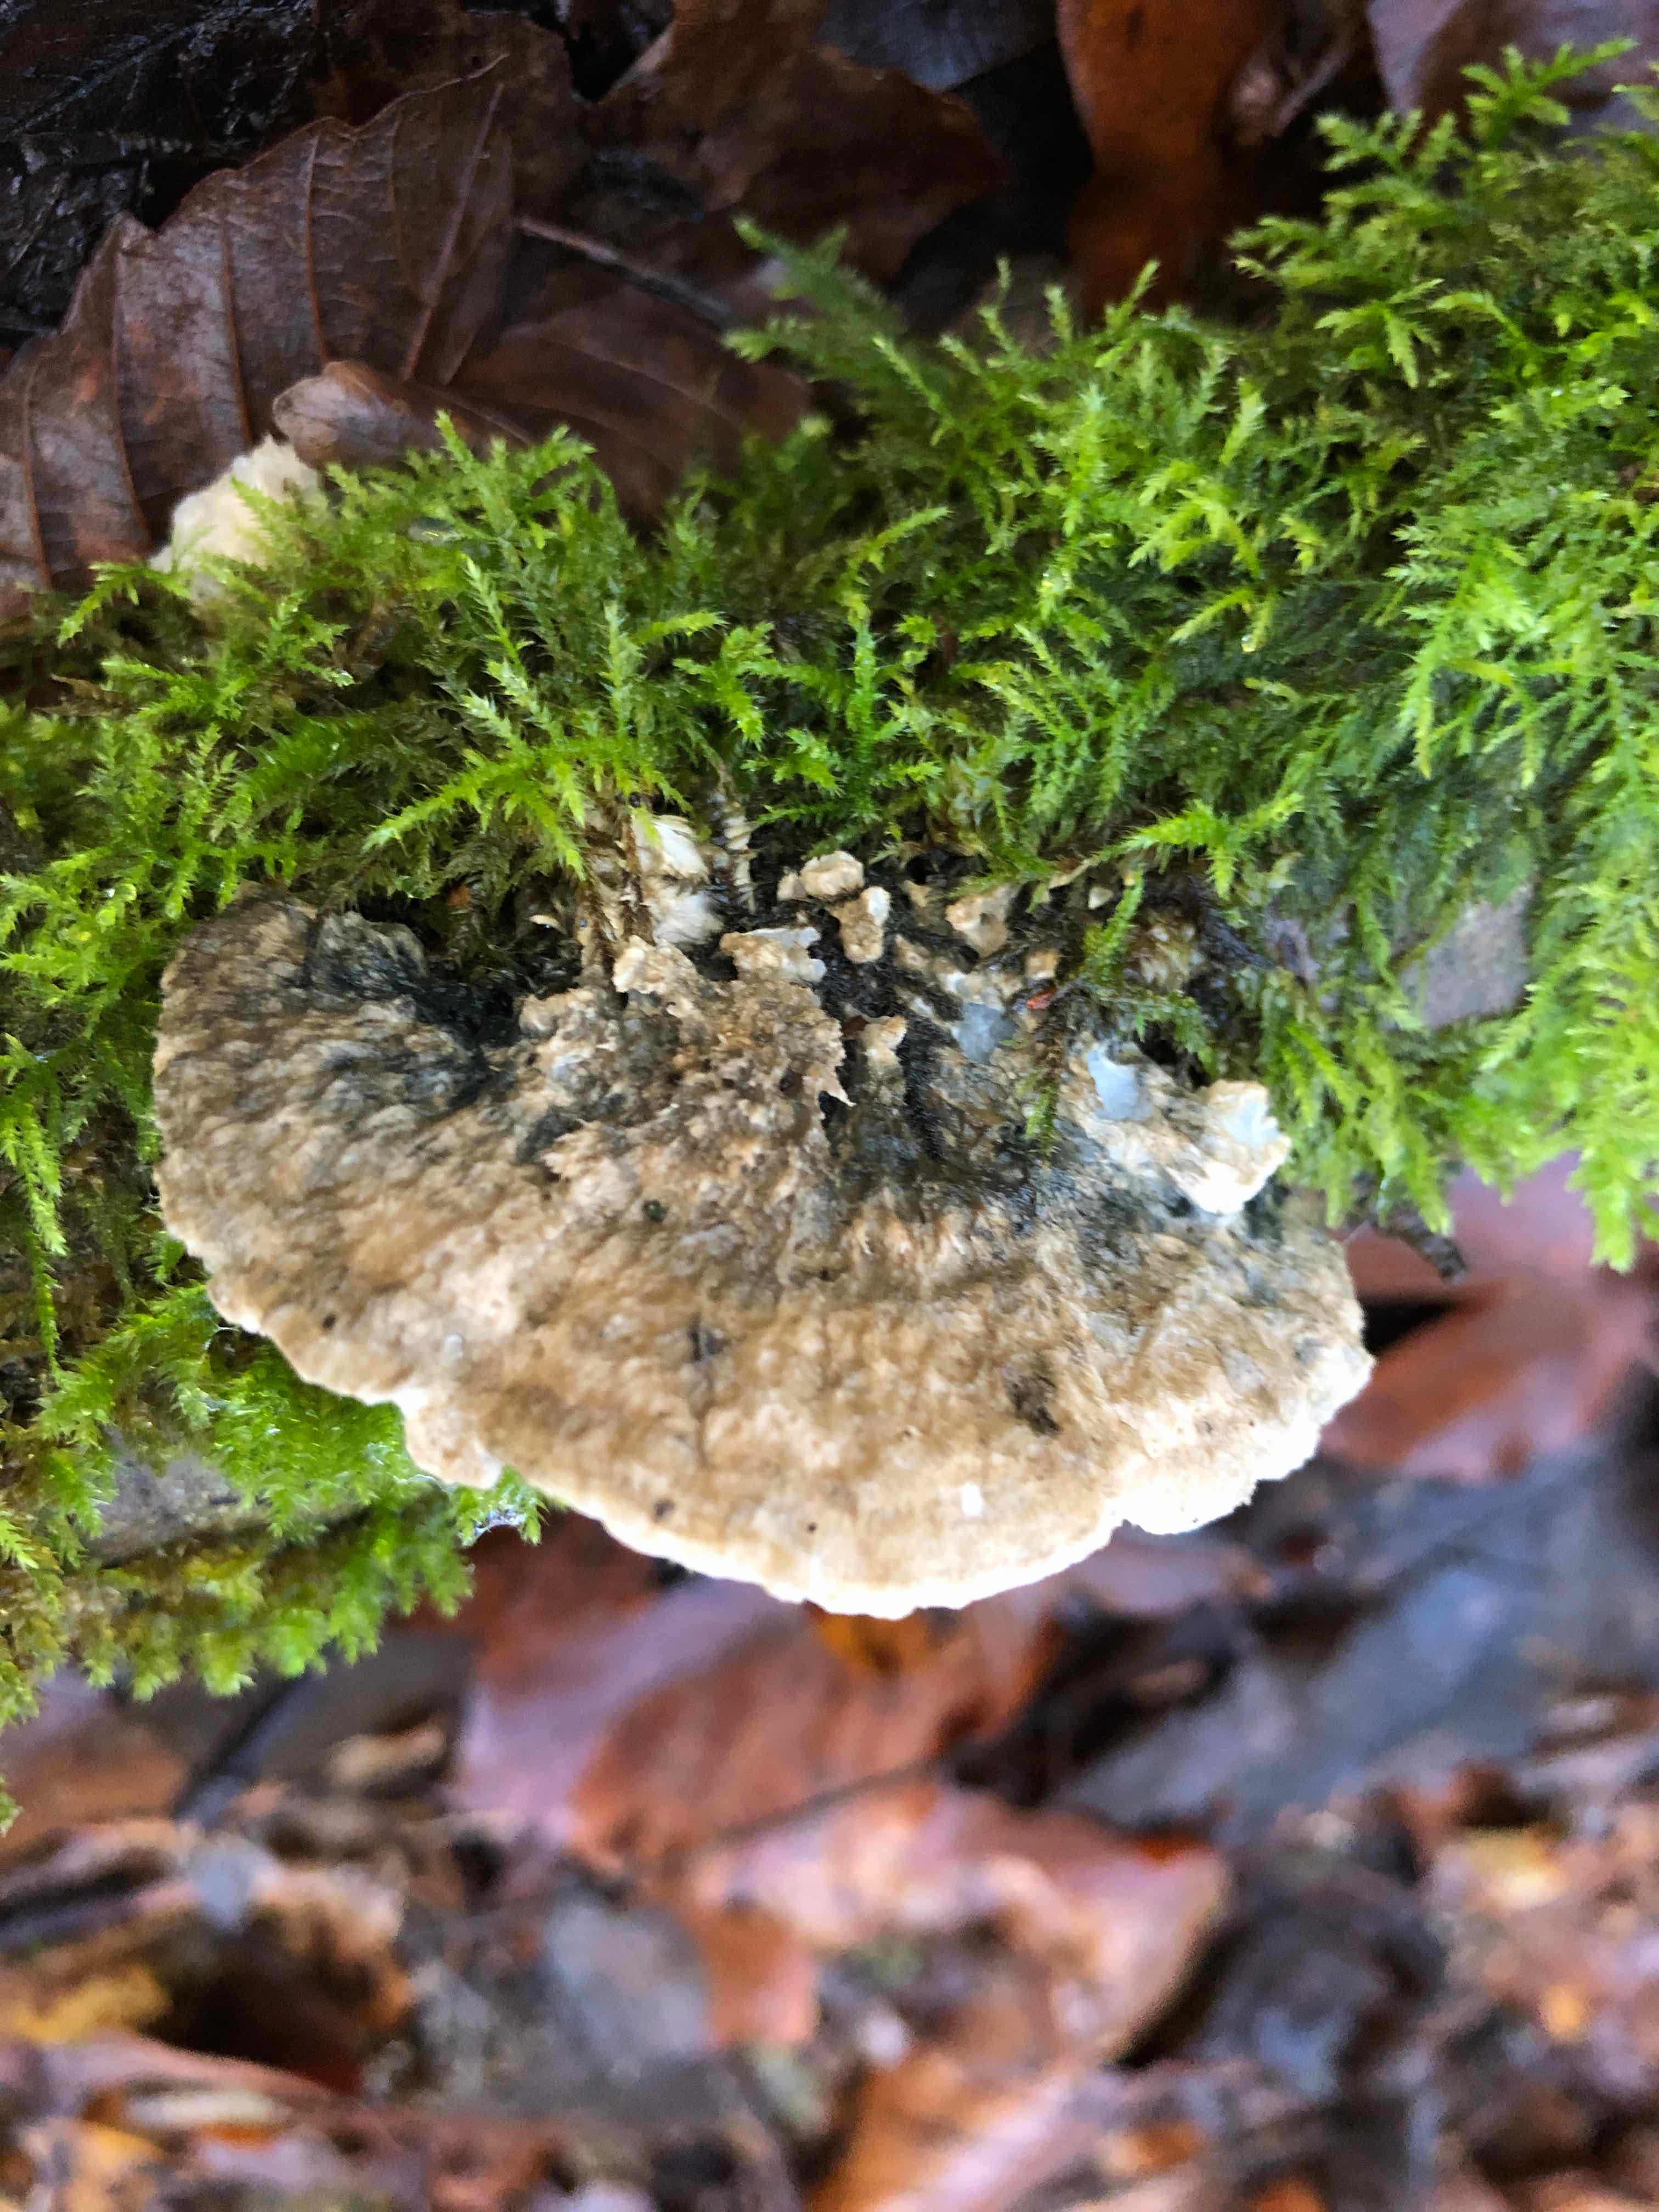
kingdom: Fungi
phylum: Basidiomycota
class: Agaricomycetes
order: Polyporales
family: Polyporaceae
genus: Cyanosporus
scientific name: Cyanosporus alni
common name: blegblå kødporesvamp
